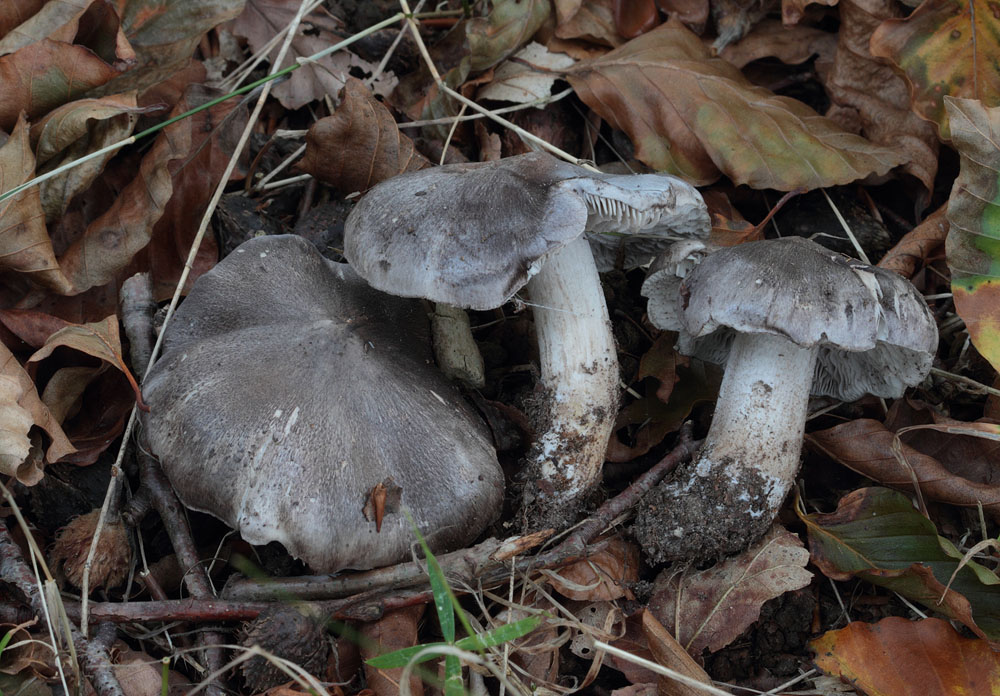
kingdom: Fungi
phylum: Basidiomycota
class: Agaricomycetes
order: Agaricales
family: Tricholomataceae
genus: Tricholoma
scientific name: Tricholoma sciodes
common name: stribet ridderhat
